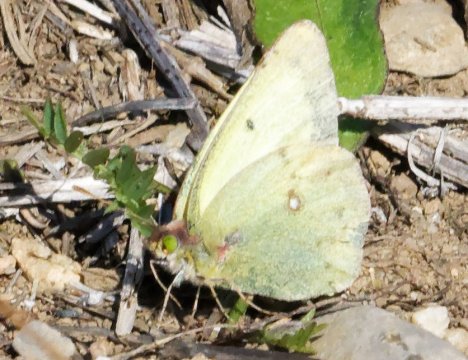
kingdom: Animalia
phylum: Arthropoda
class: Insecta
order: Lepidoptera
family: Pieridae
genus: Colias
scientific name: Colias philodice
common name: Clouded Sulphur
